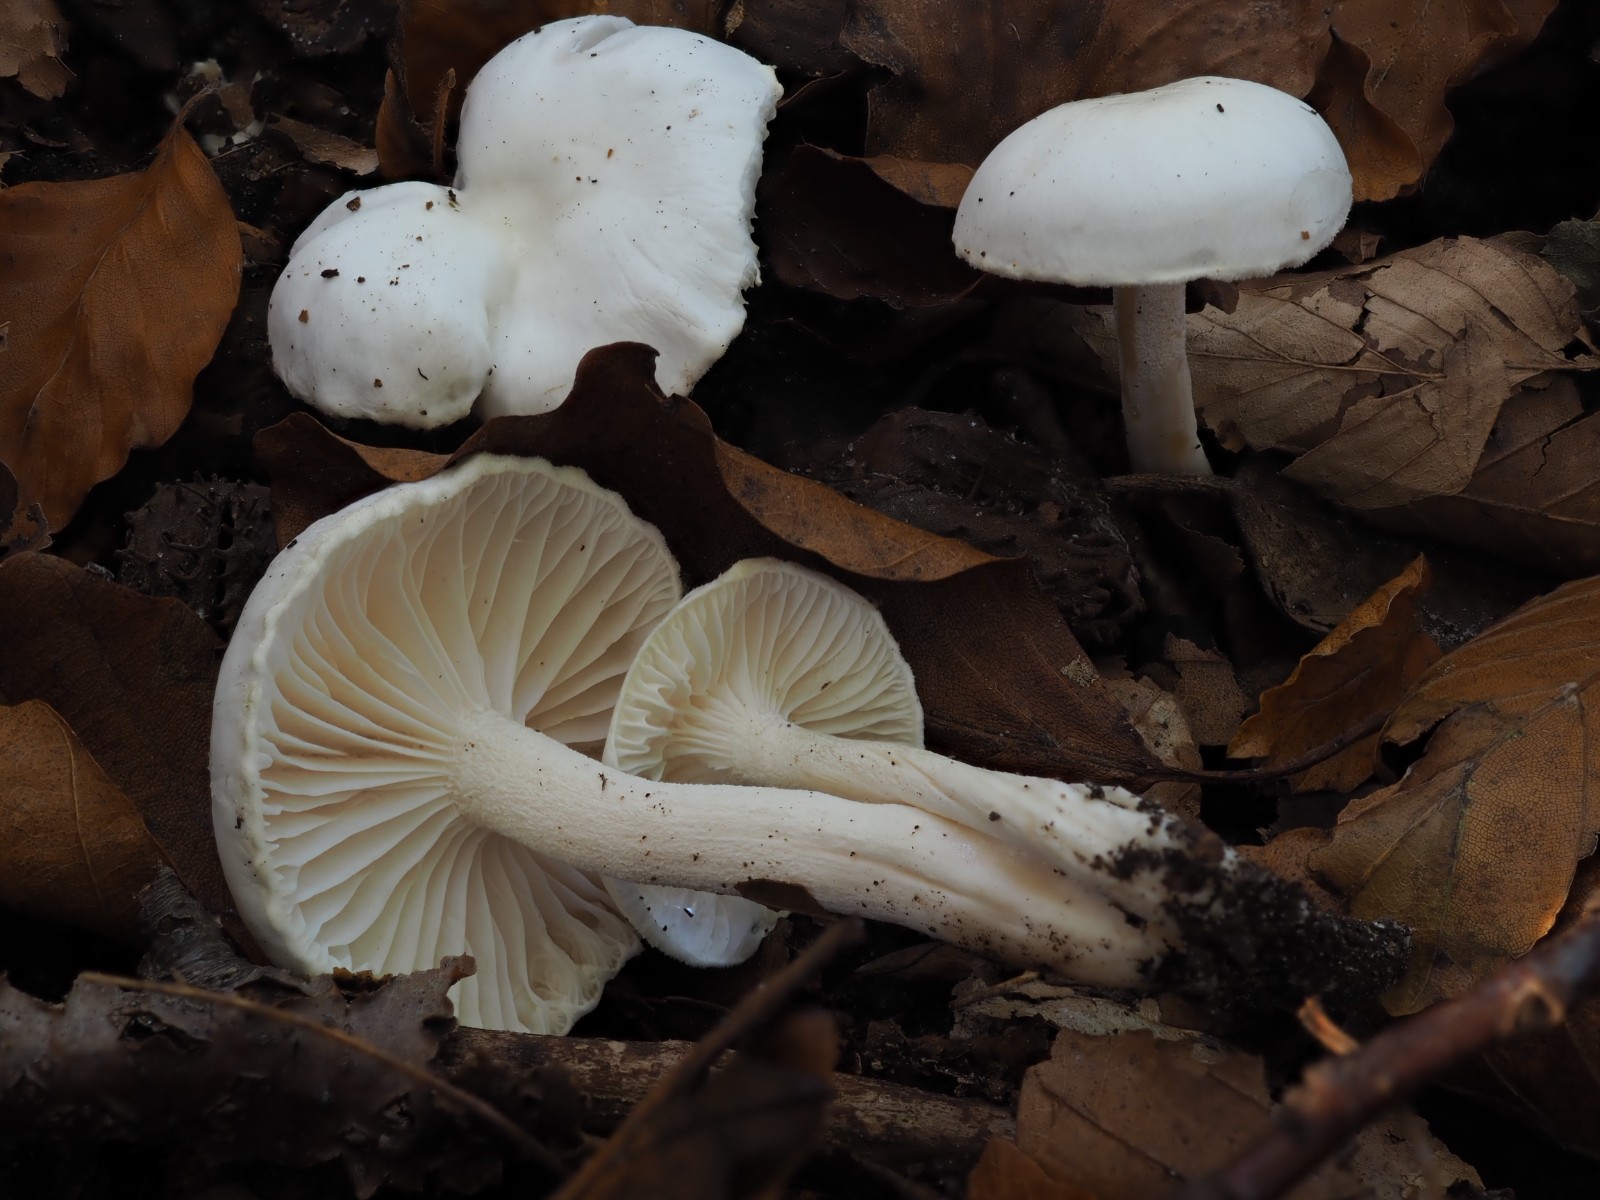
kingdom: Fungi
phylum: Basidiomycota
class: Agaricomycetes
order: Agaricales
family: Hygrophoraceae
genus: Hygrophorus
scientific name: Hygrophorus eburneus
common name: elfenbens-sneglehat
